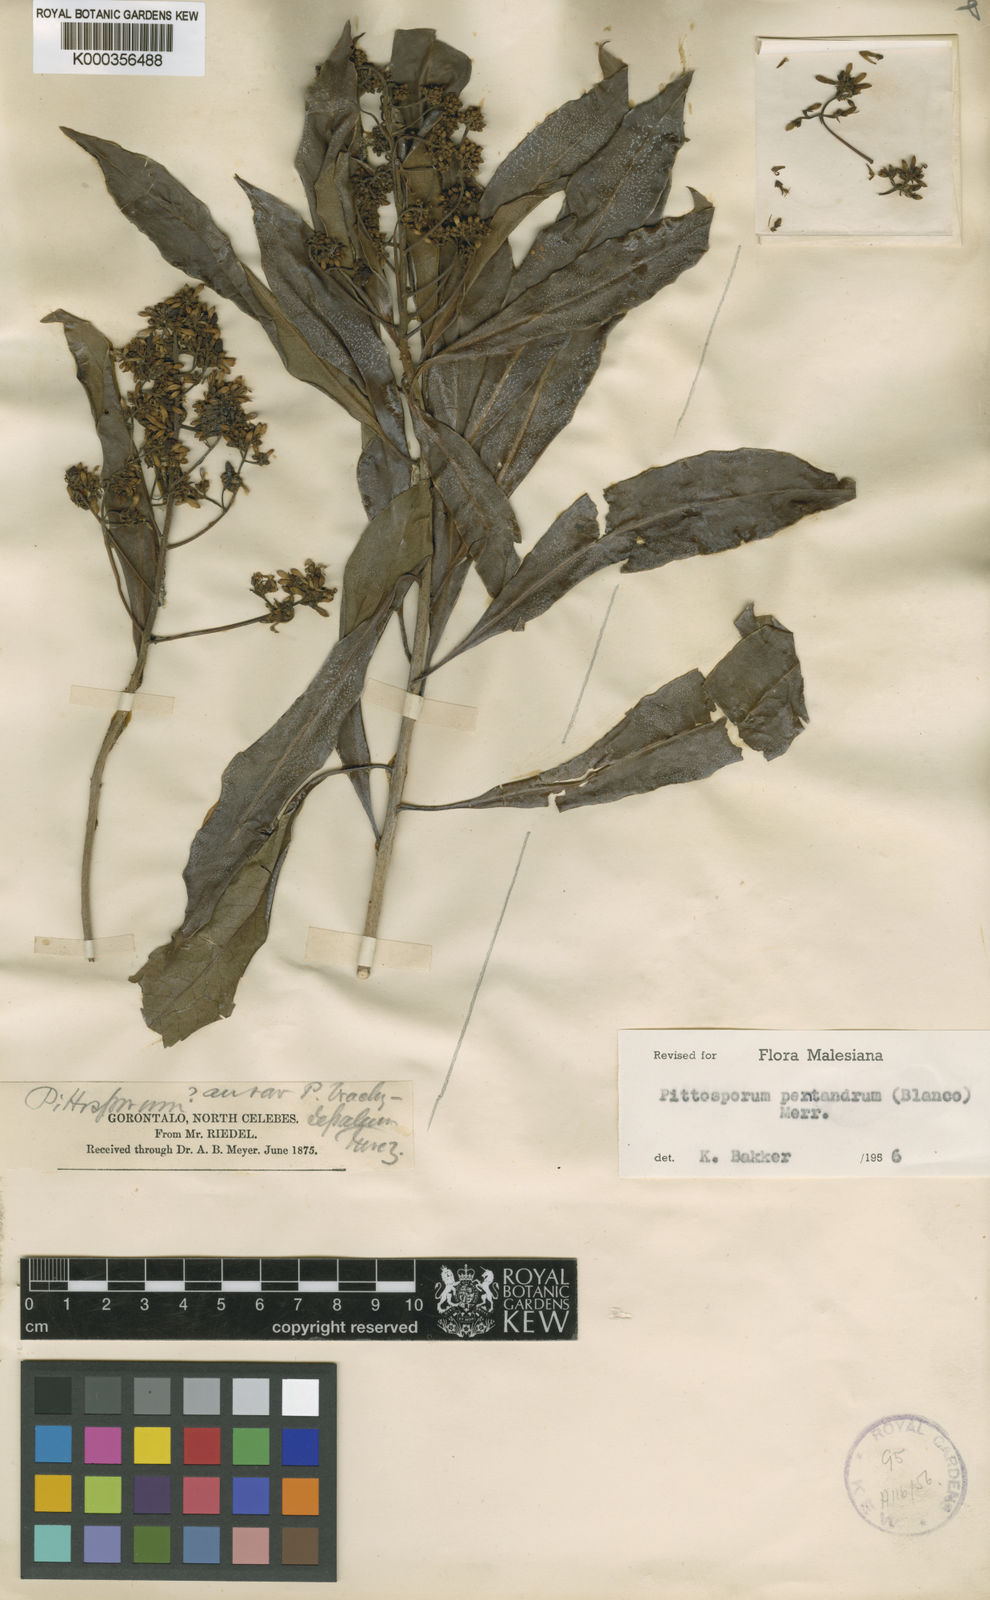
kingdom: Plantae
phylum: Tracheophyta
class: Magnoliopsida
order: Apiales
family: Pittosporaceae
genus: Pittosporum
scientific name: Pittosporum pentandrum
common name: Taiwanese cheesewood
